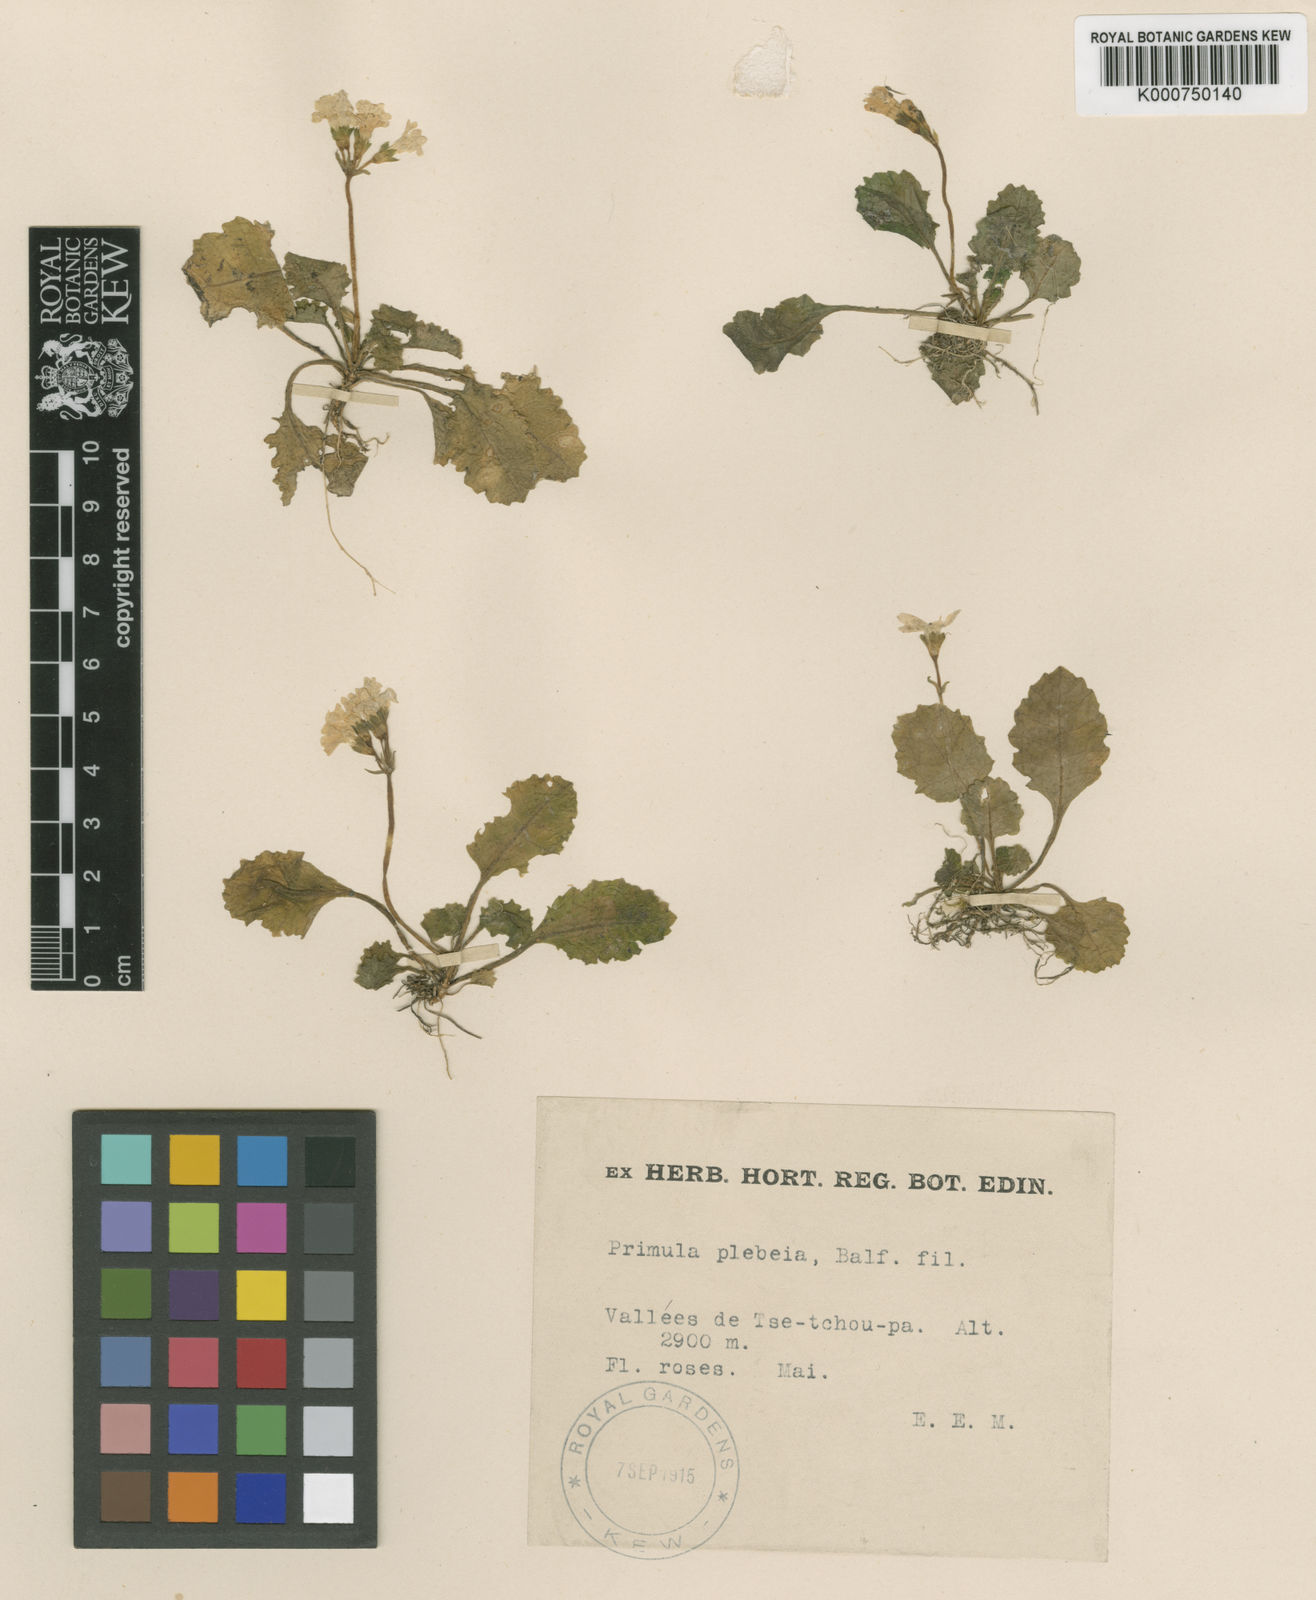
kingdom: Plantae
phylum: Tracheophyta
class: Magnoliopsida
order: Ericales
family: Primulaceae
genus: Primula
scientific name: Primula sinuata
